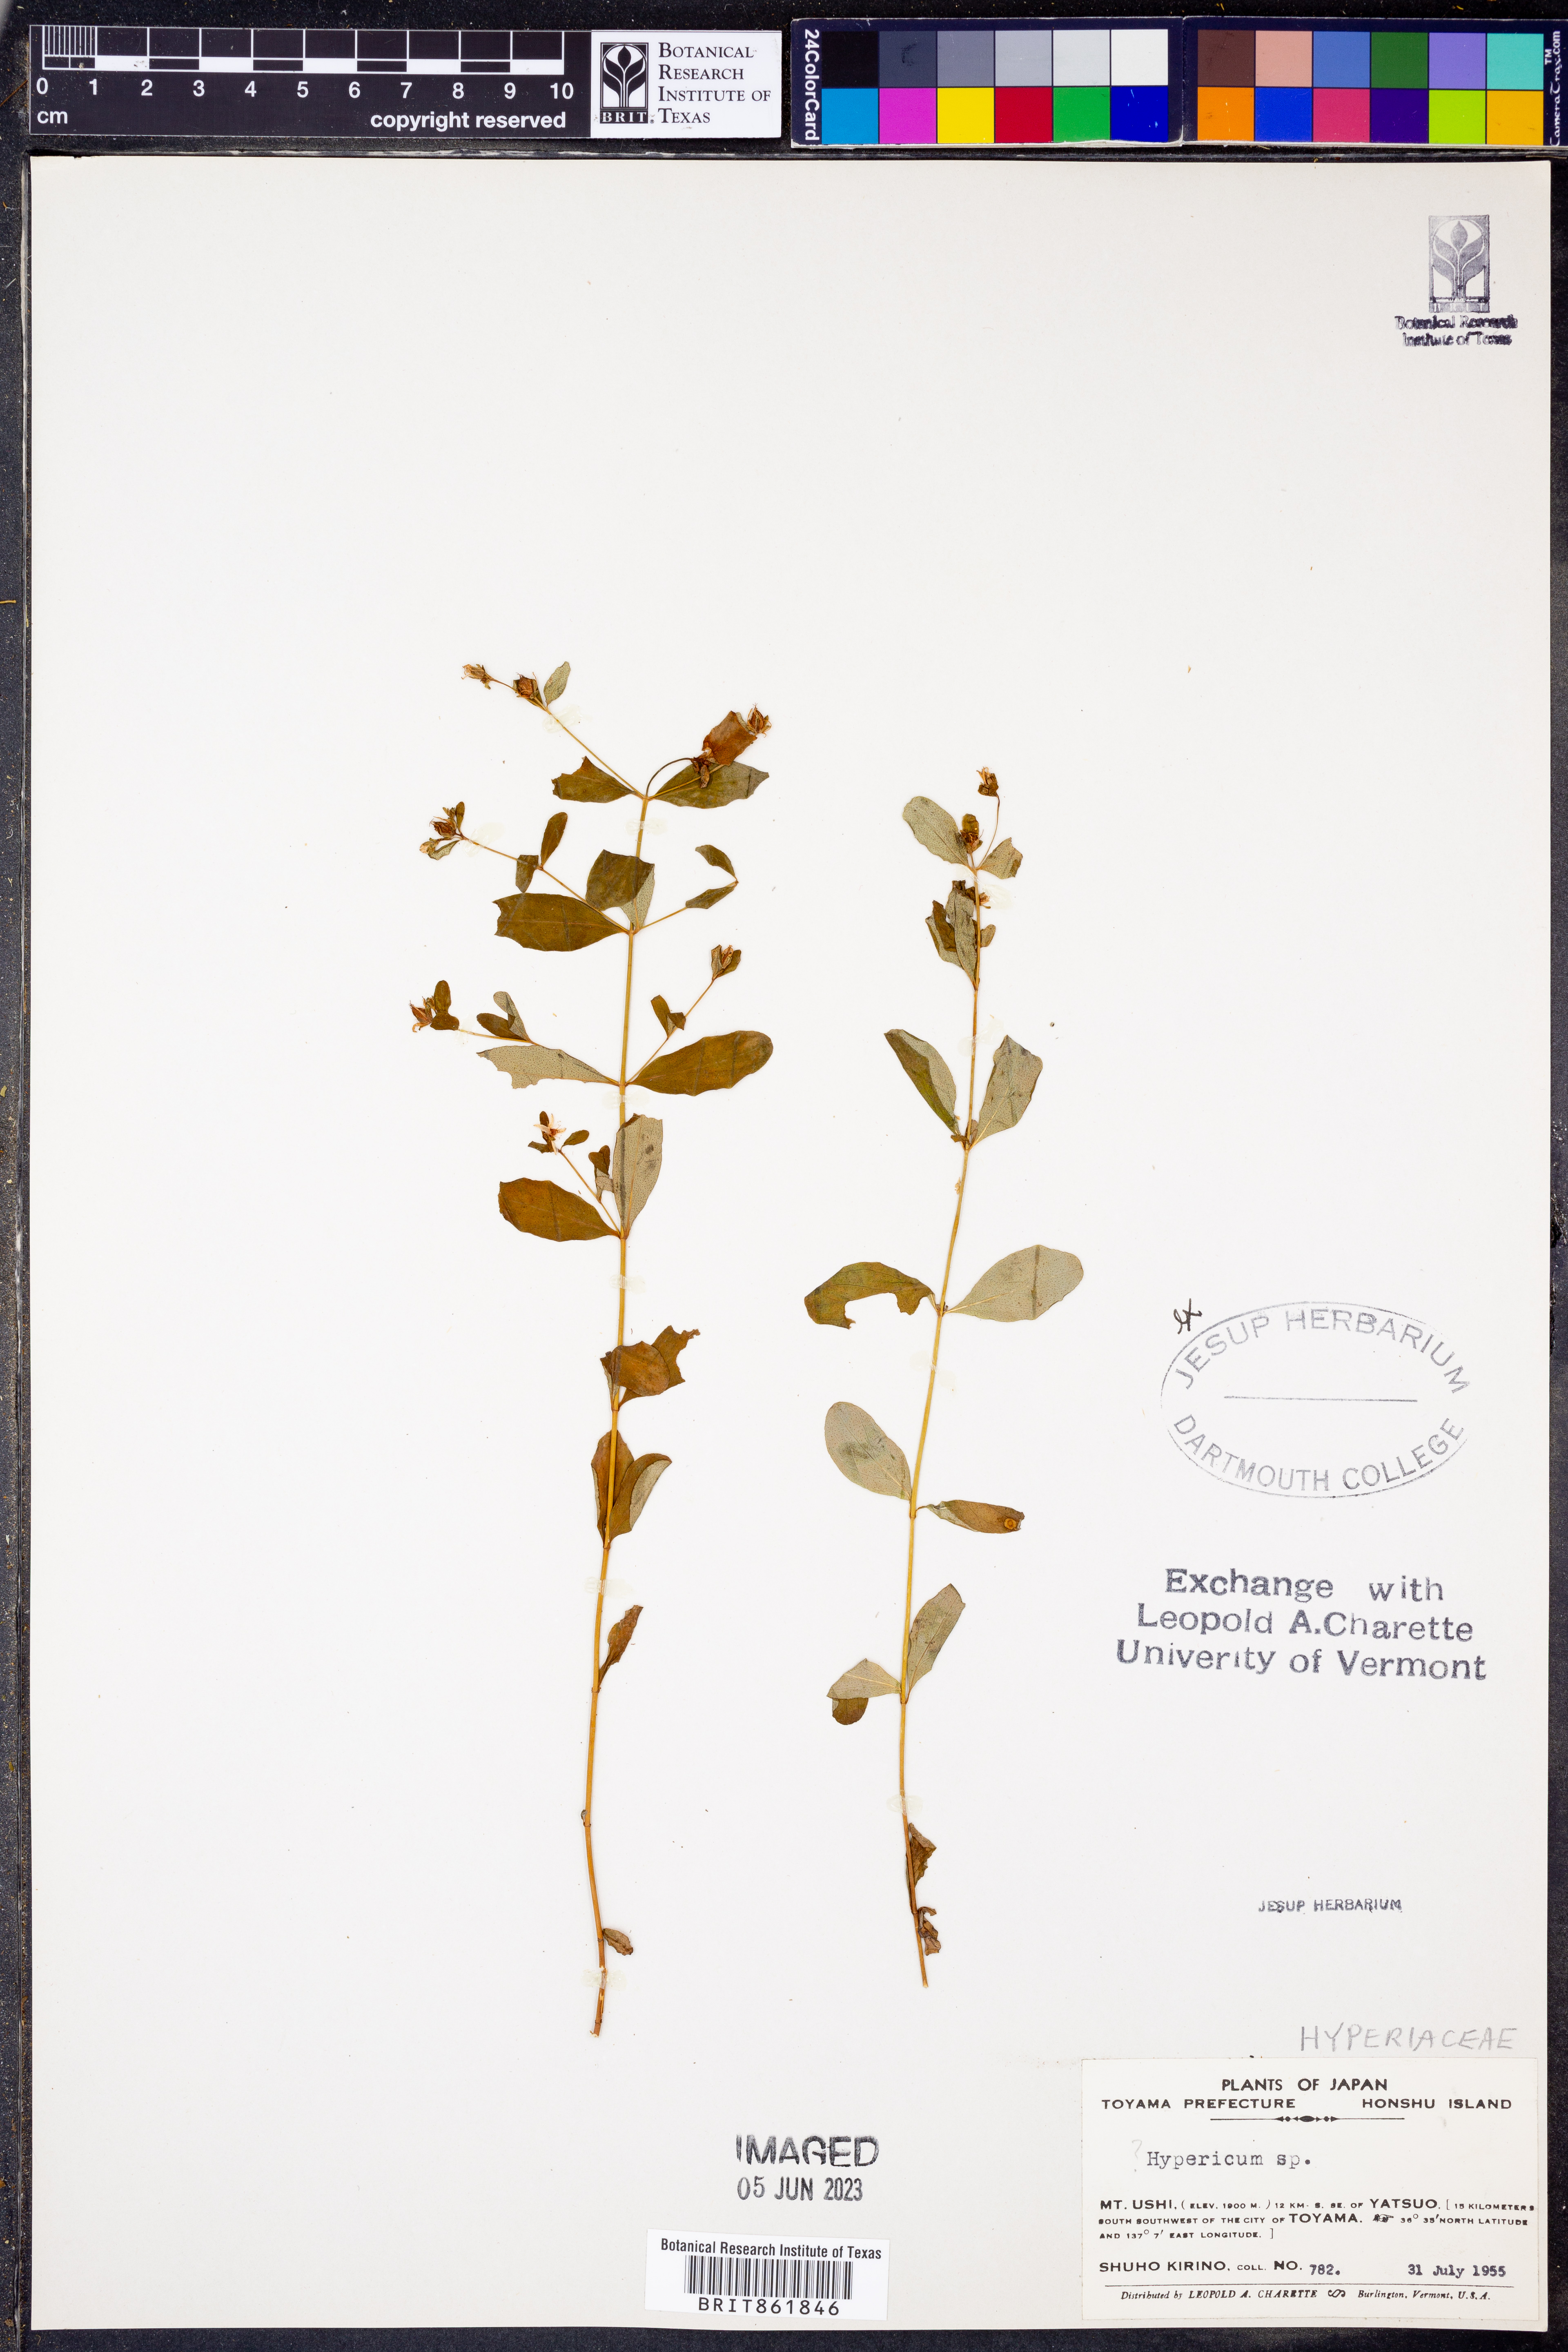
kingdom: Plantae
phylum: Tracheophyta
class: Magnoliopsida
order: Malpighiales
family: Hypericaceae
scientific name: Hypericaceae
